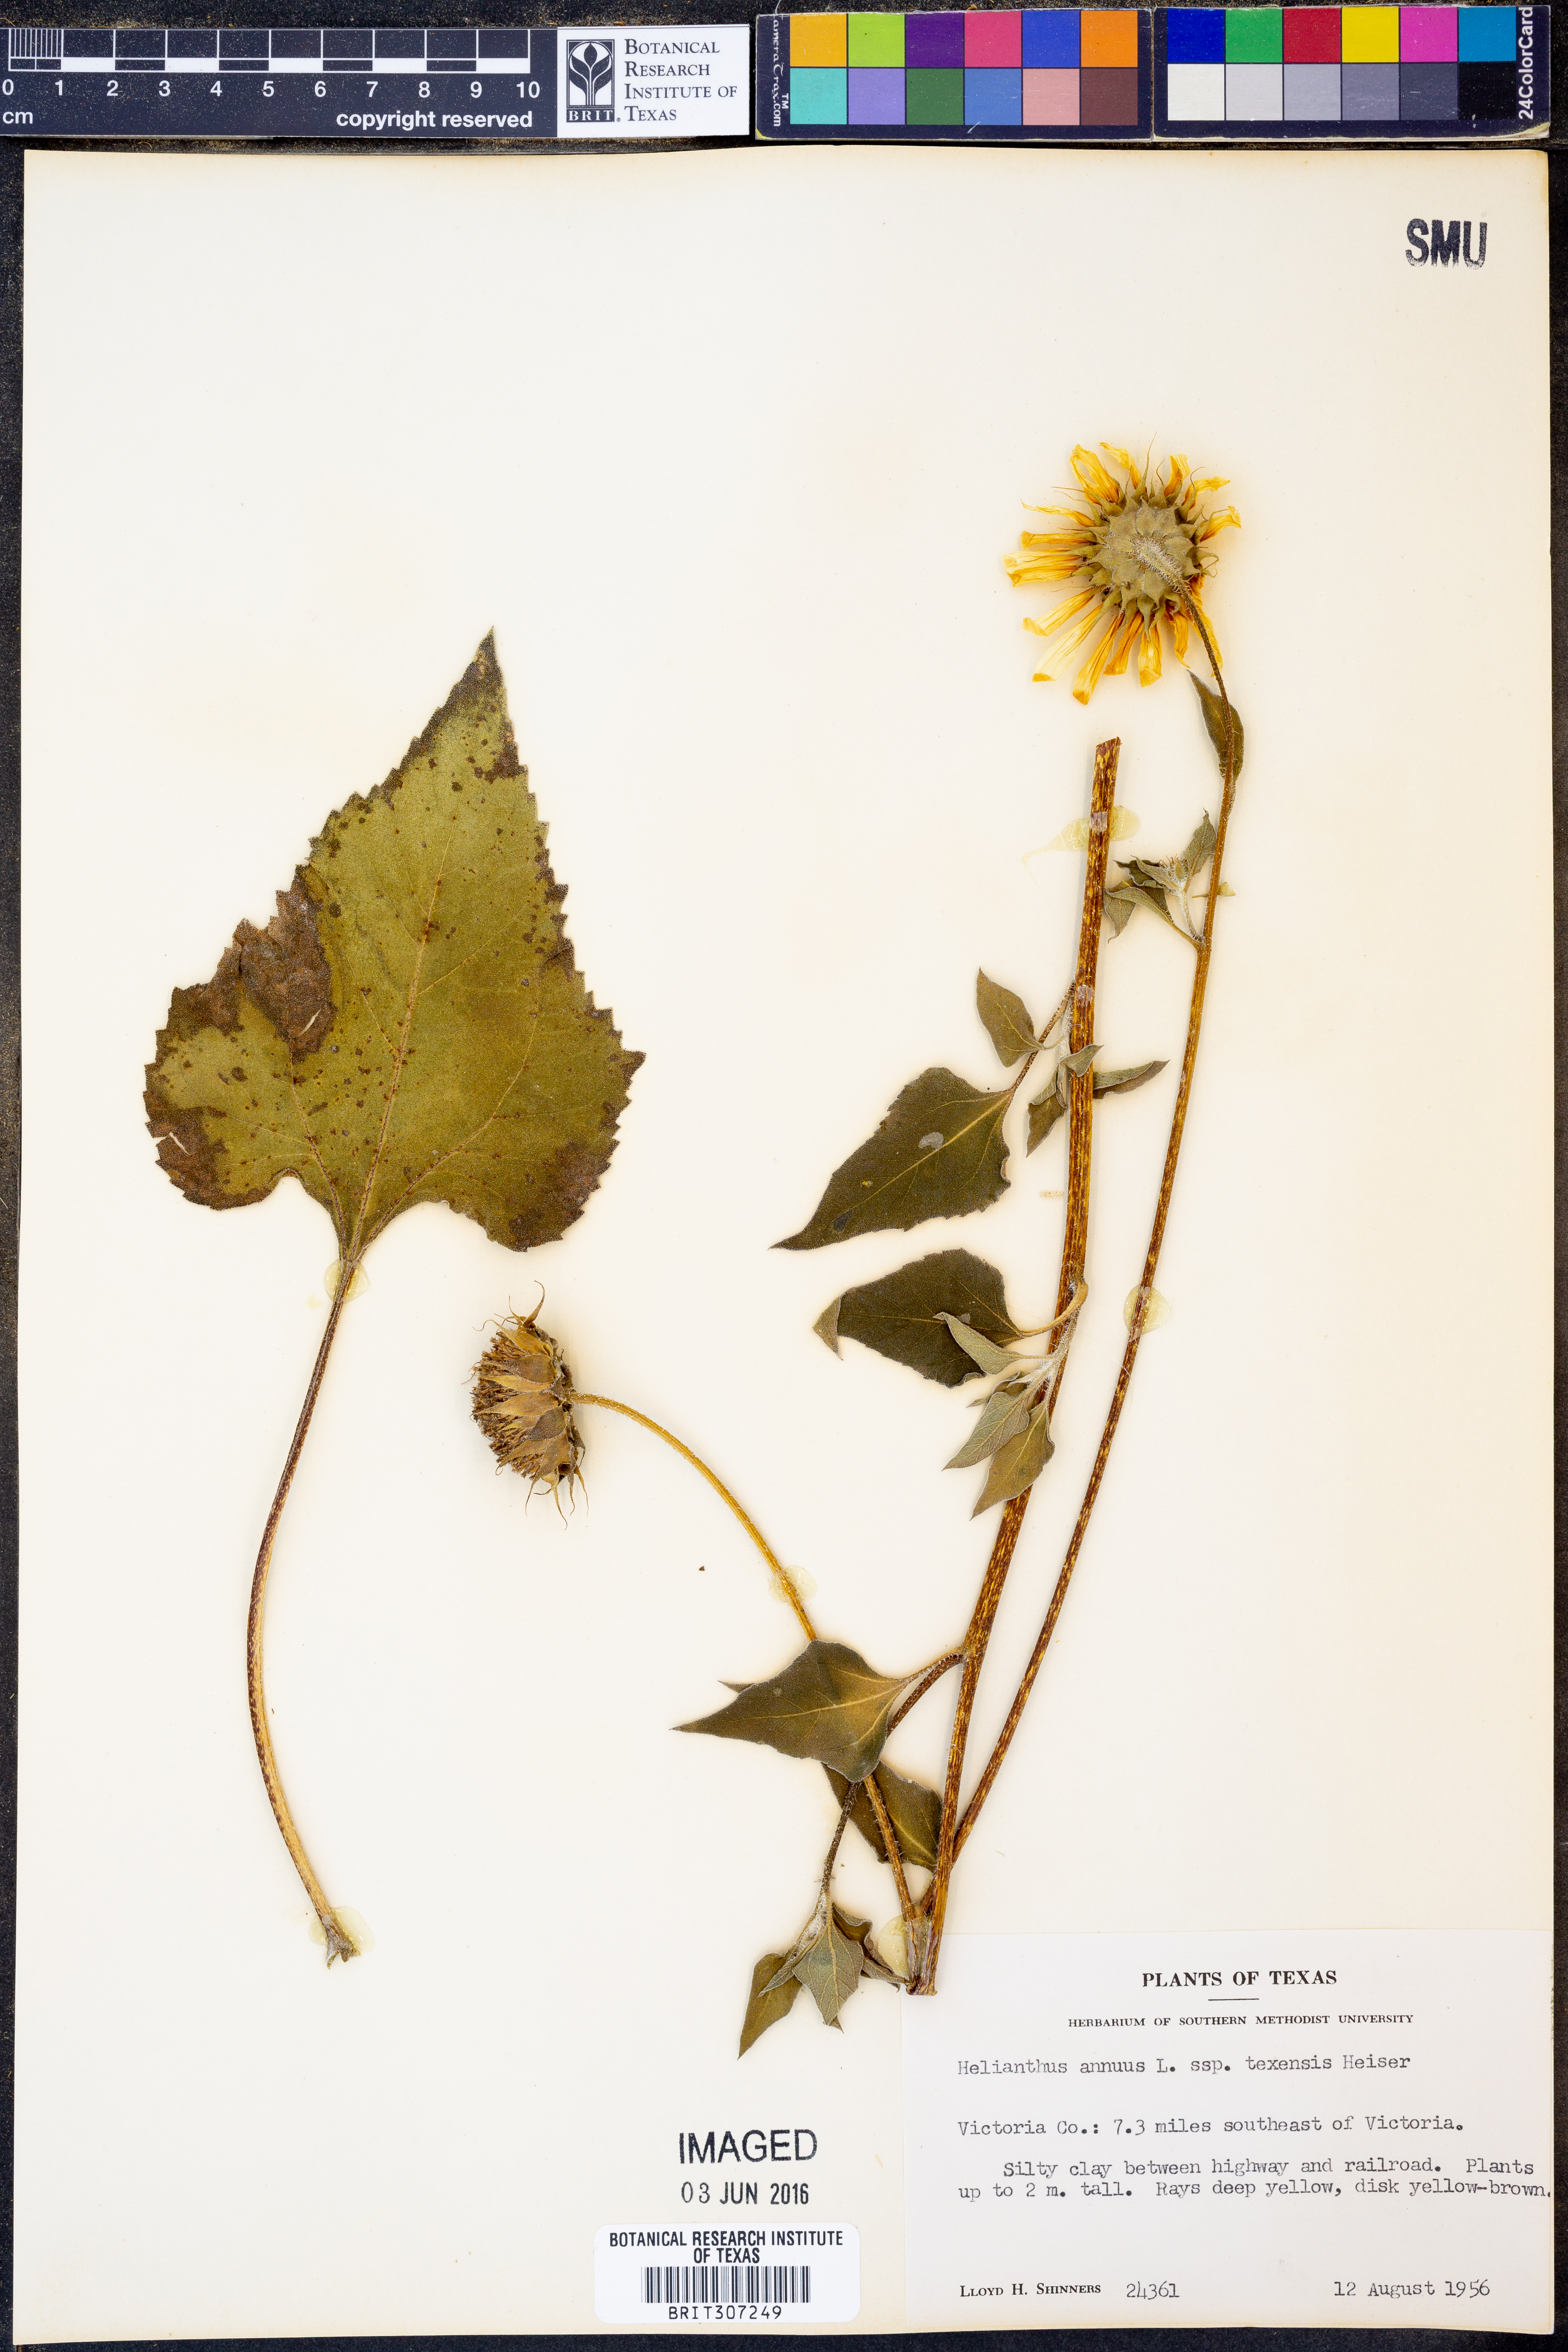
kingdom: Plantae
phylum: Tracheophyta
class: Magnoliopsida
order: Asterales
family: Asteraceae
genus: Helianthus
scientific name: Helianthus annuus
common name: Sunflower
